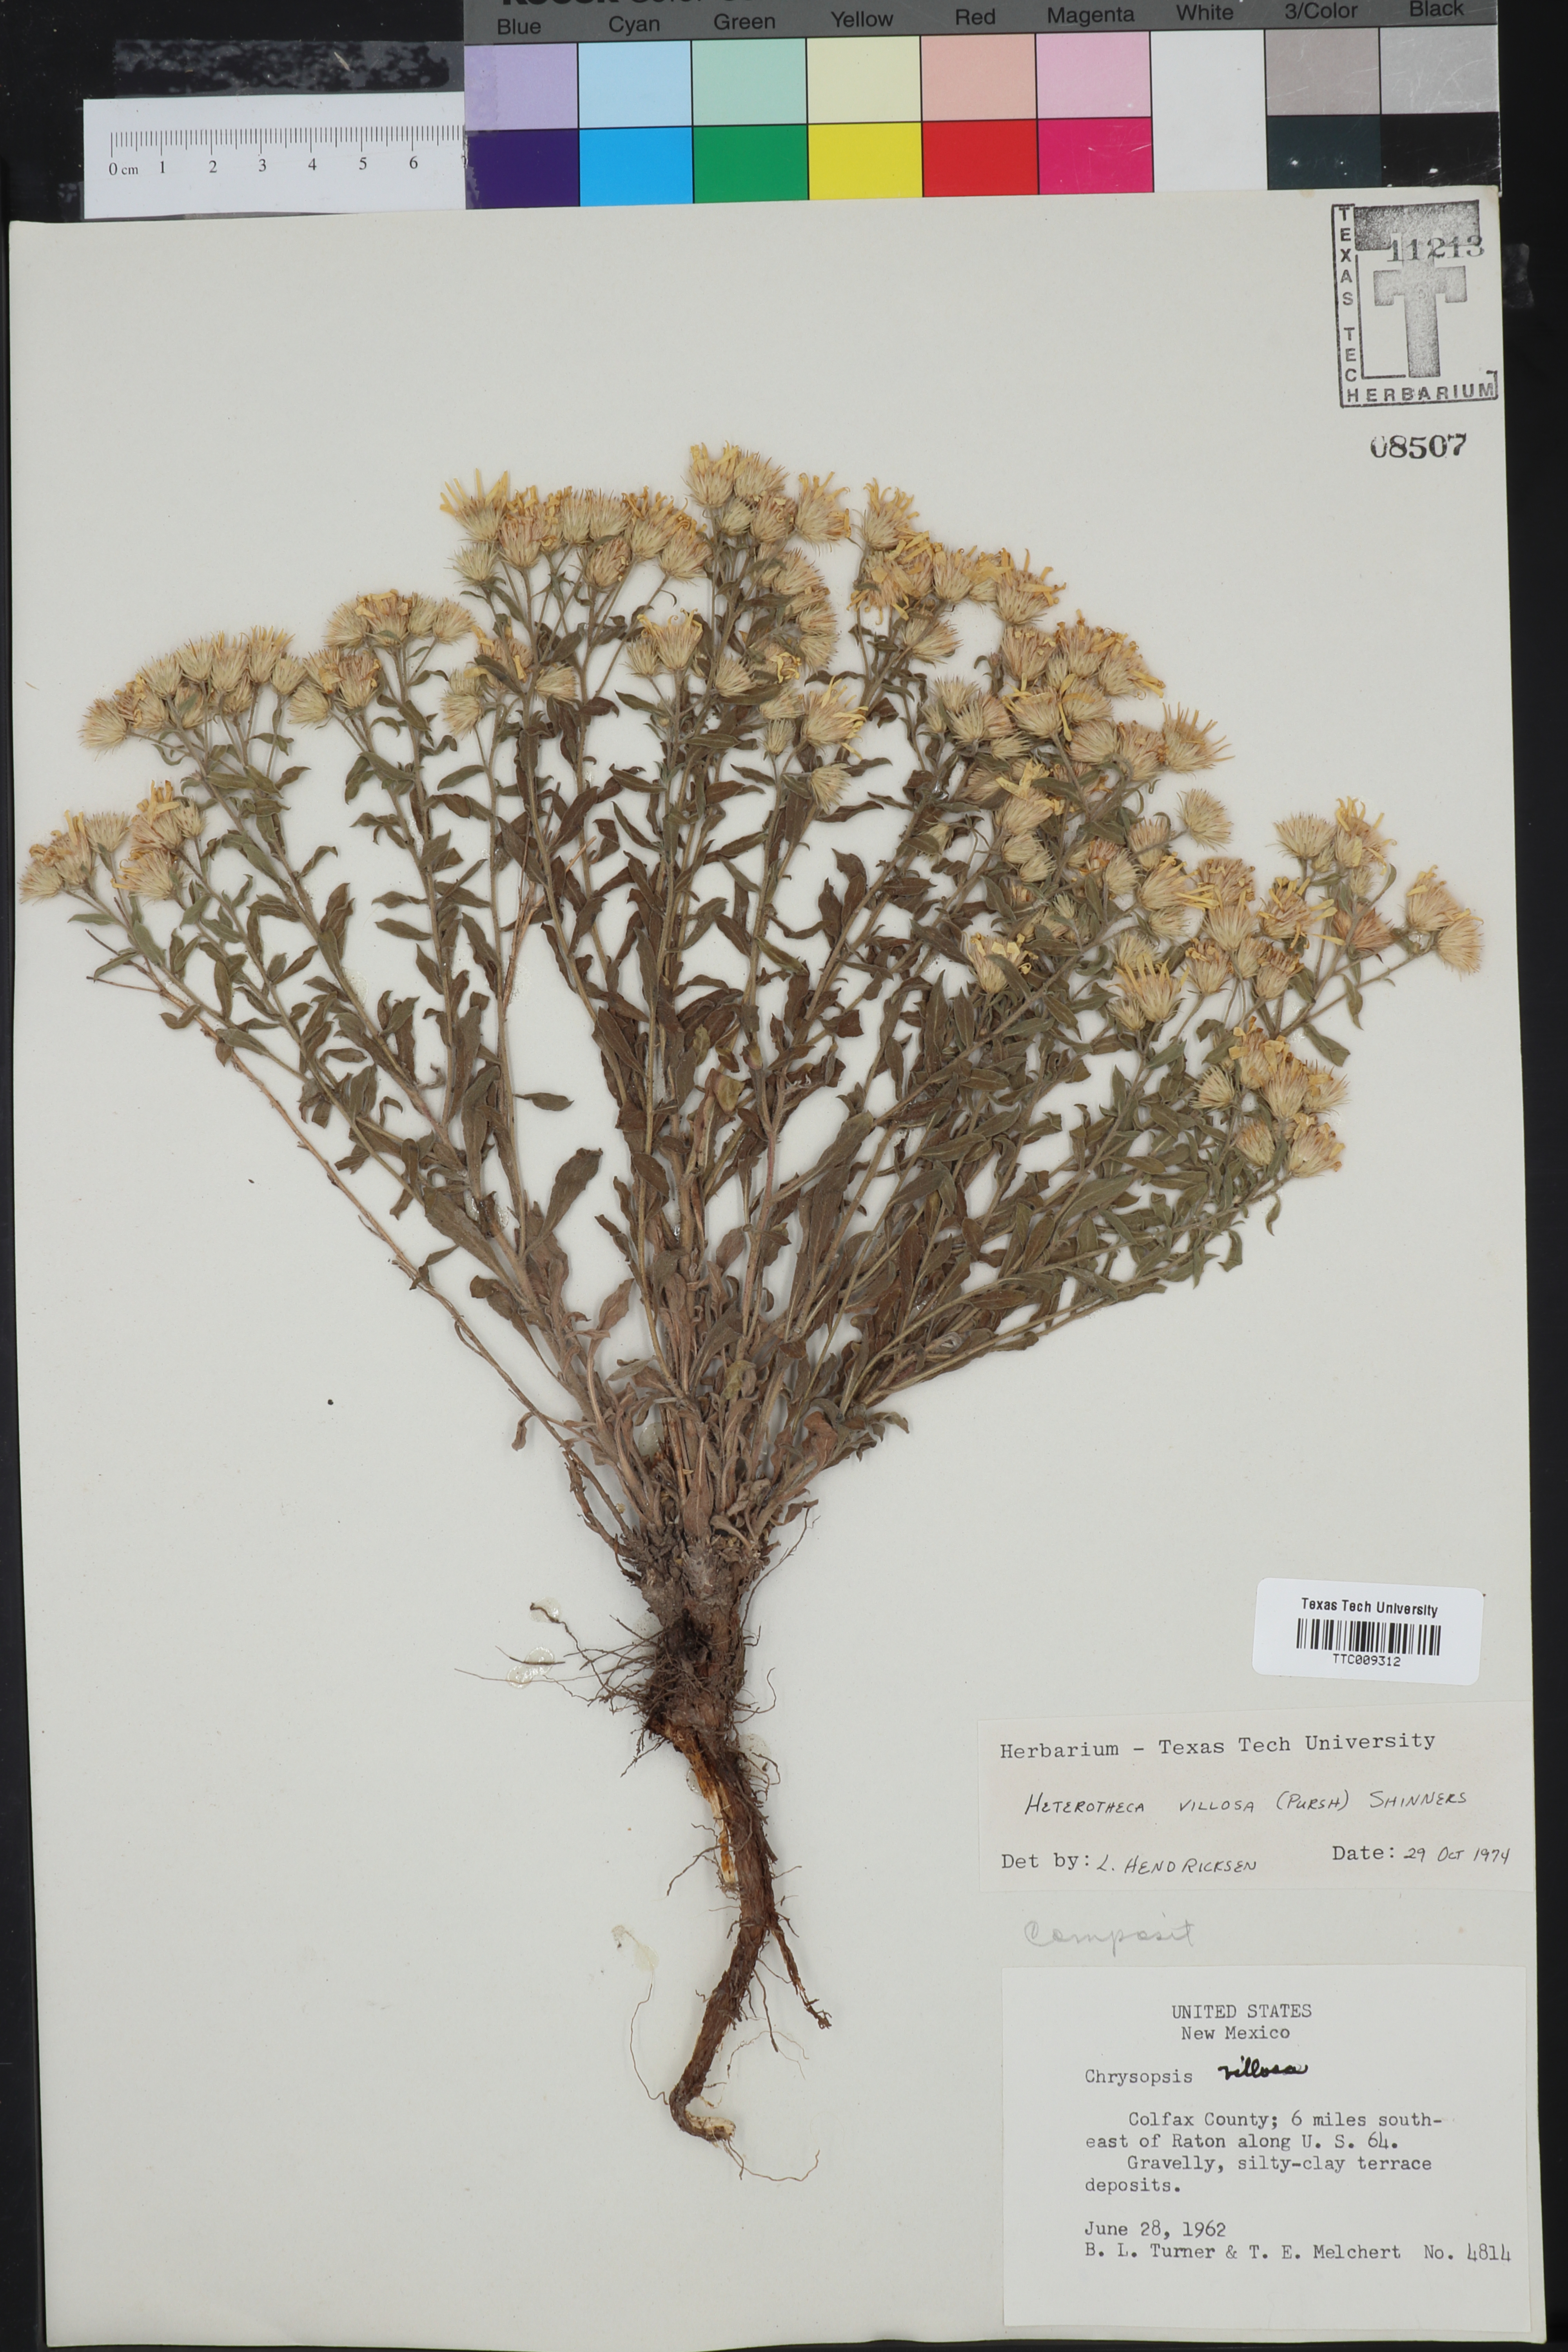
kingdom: Plantae
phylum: Tracheophyta
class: Magnoliopsida
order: Asterales
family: Asteraceae
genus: Heterotheca
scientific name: Heterotheca villosa
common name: Hairy false goldenaster
